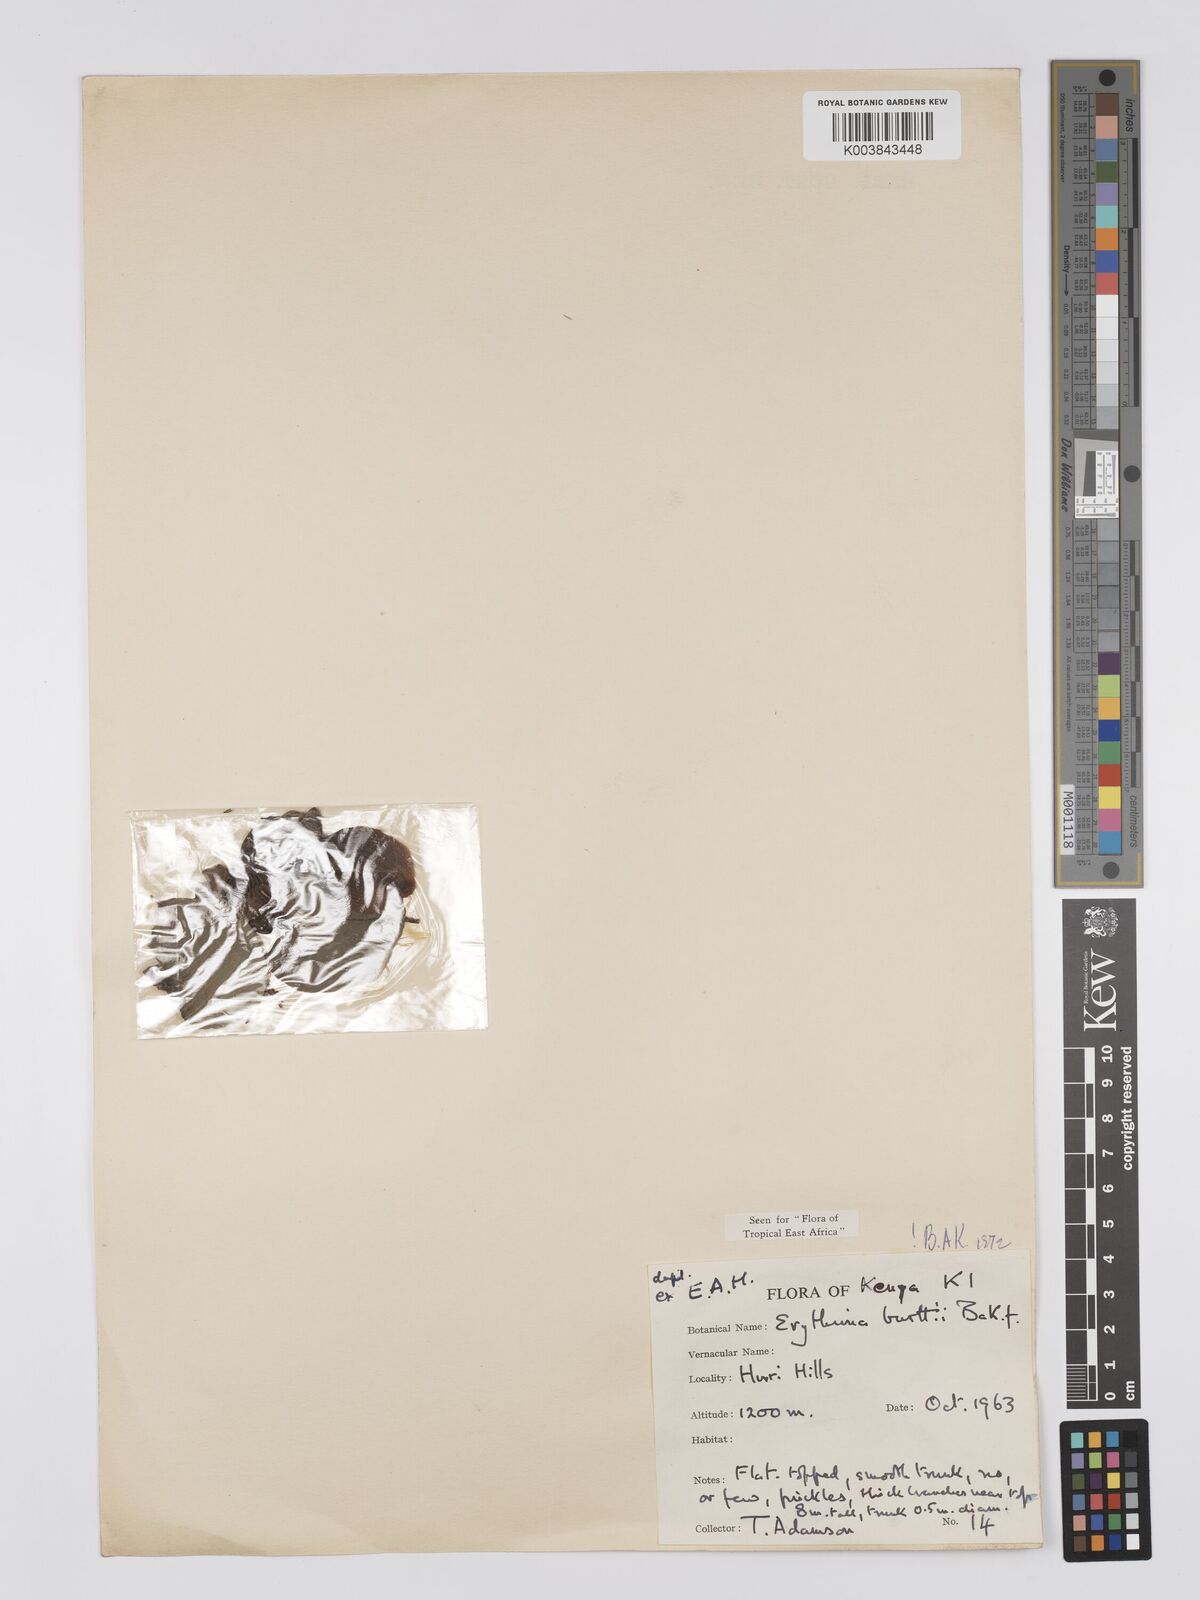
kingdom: Plantae
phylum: Tracheophyta
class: Magnoliopsida
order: Fabales
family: Fabaceae
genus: Erythrina
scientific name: Erythrina burttii
